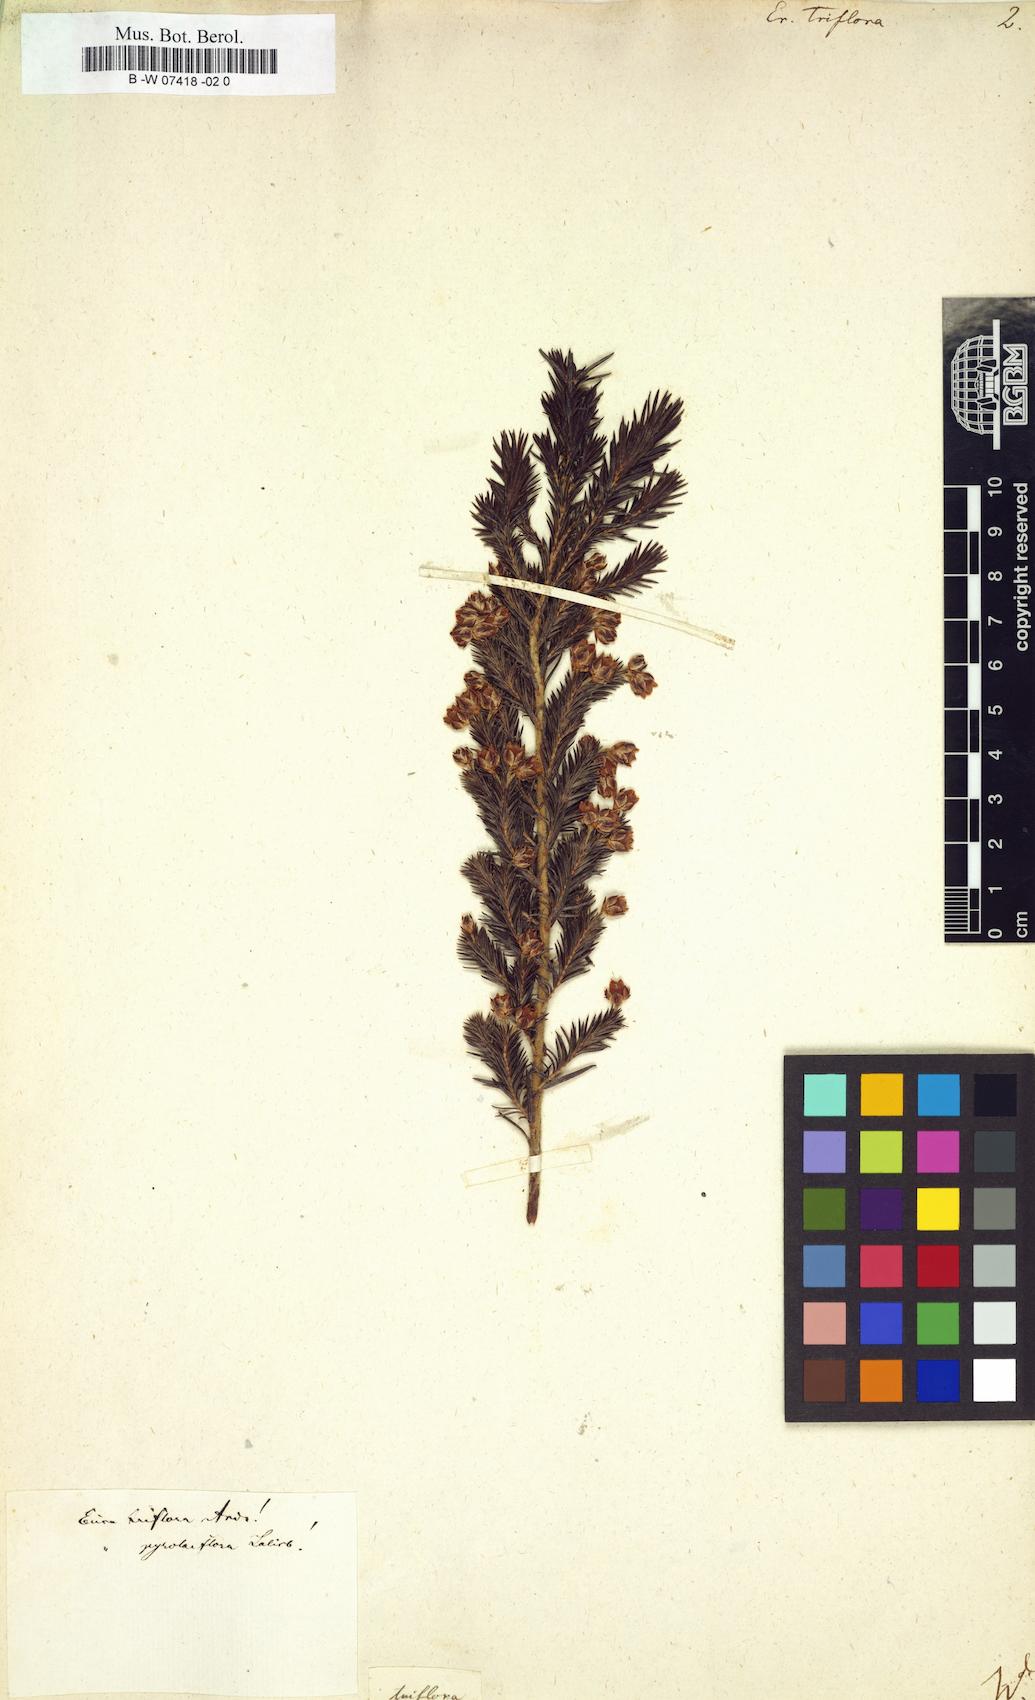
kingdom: Plantae
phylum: Tracheophyta
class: Magnoliopsida
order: Ericales
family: Ericaceae
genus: Erica
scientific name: Erica triflora
